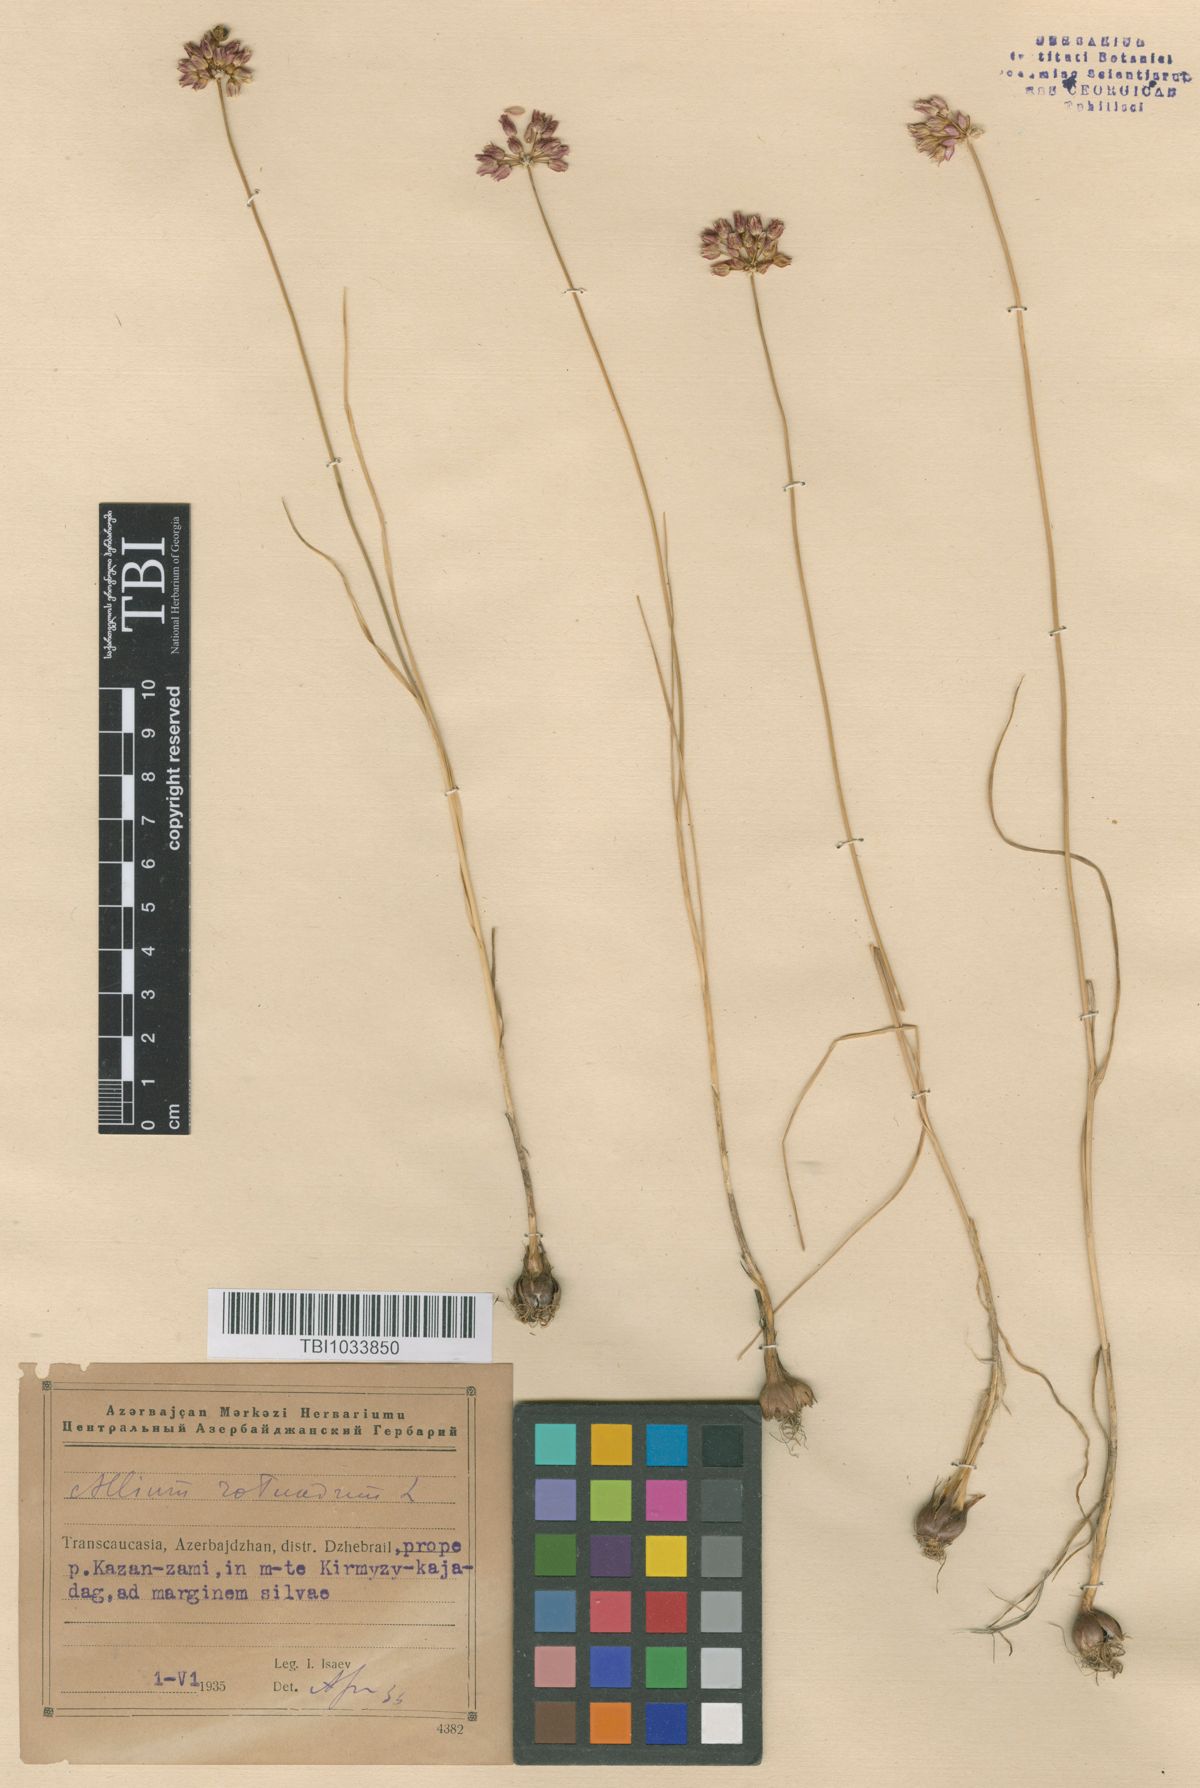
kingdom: Plantae
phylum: Tracheophyta
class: Liliopsida
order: Asparagales
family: Amaryllidaceae
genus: Allium
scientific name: Allium rotundum
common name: Sand leek
